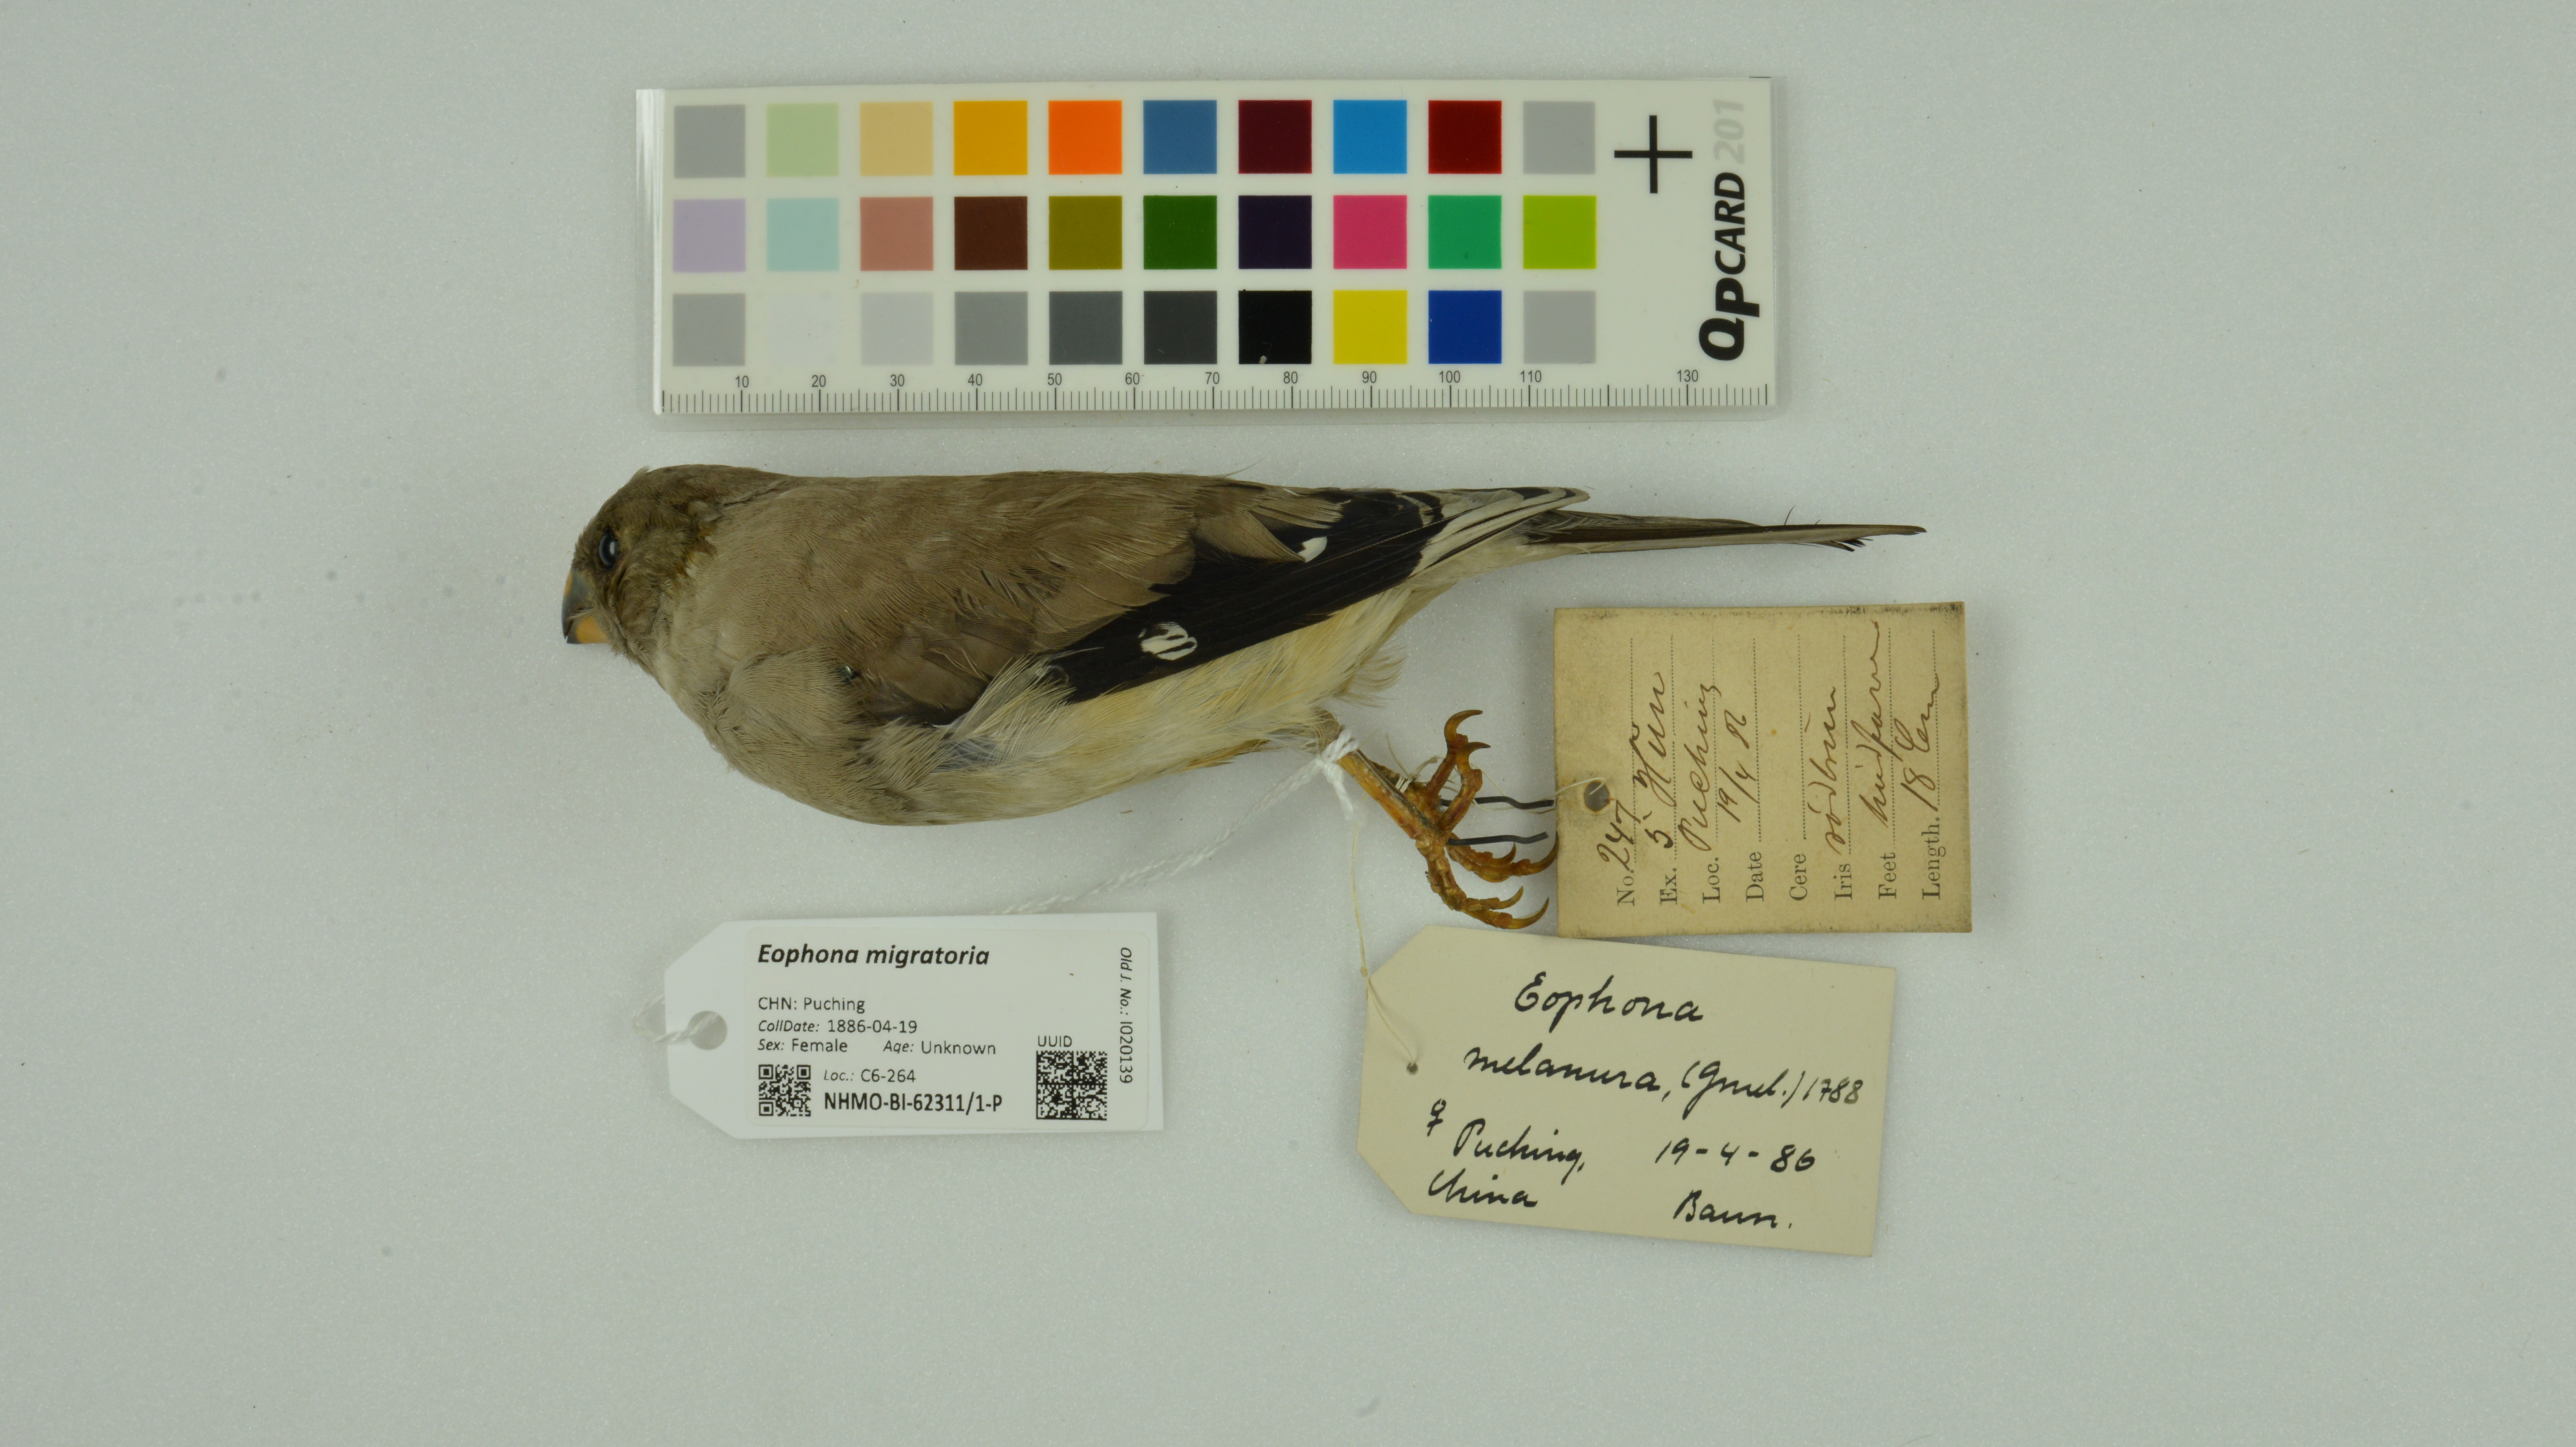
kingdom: Animalia
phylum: Chordata
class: Aves
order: Passeriformes
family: Fringillidae
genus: Eophona
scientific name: Eophona migratoria
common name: Yellow-billed grosbeak
